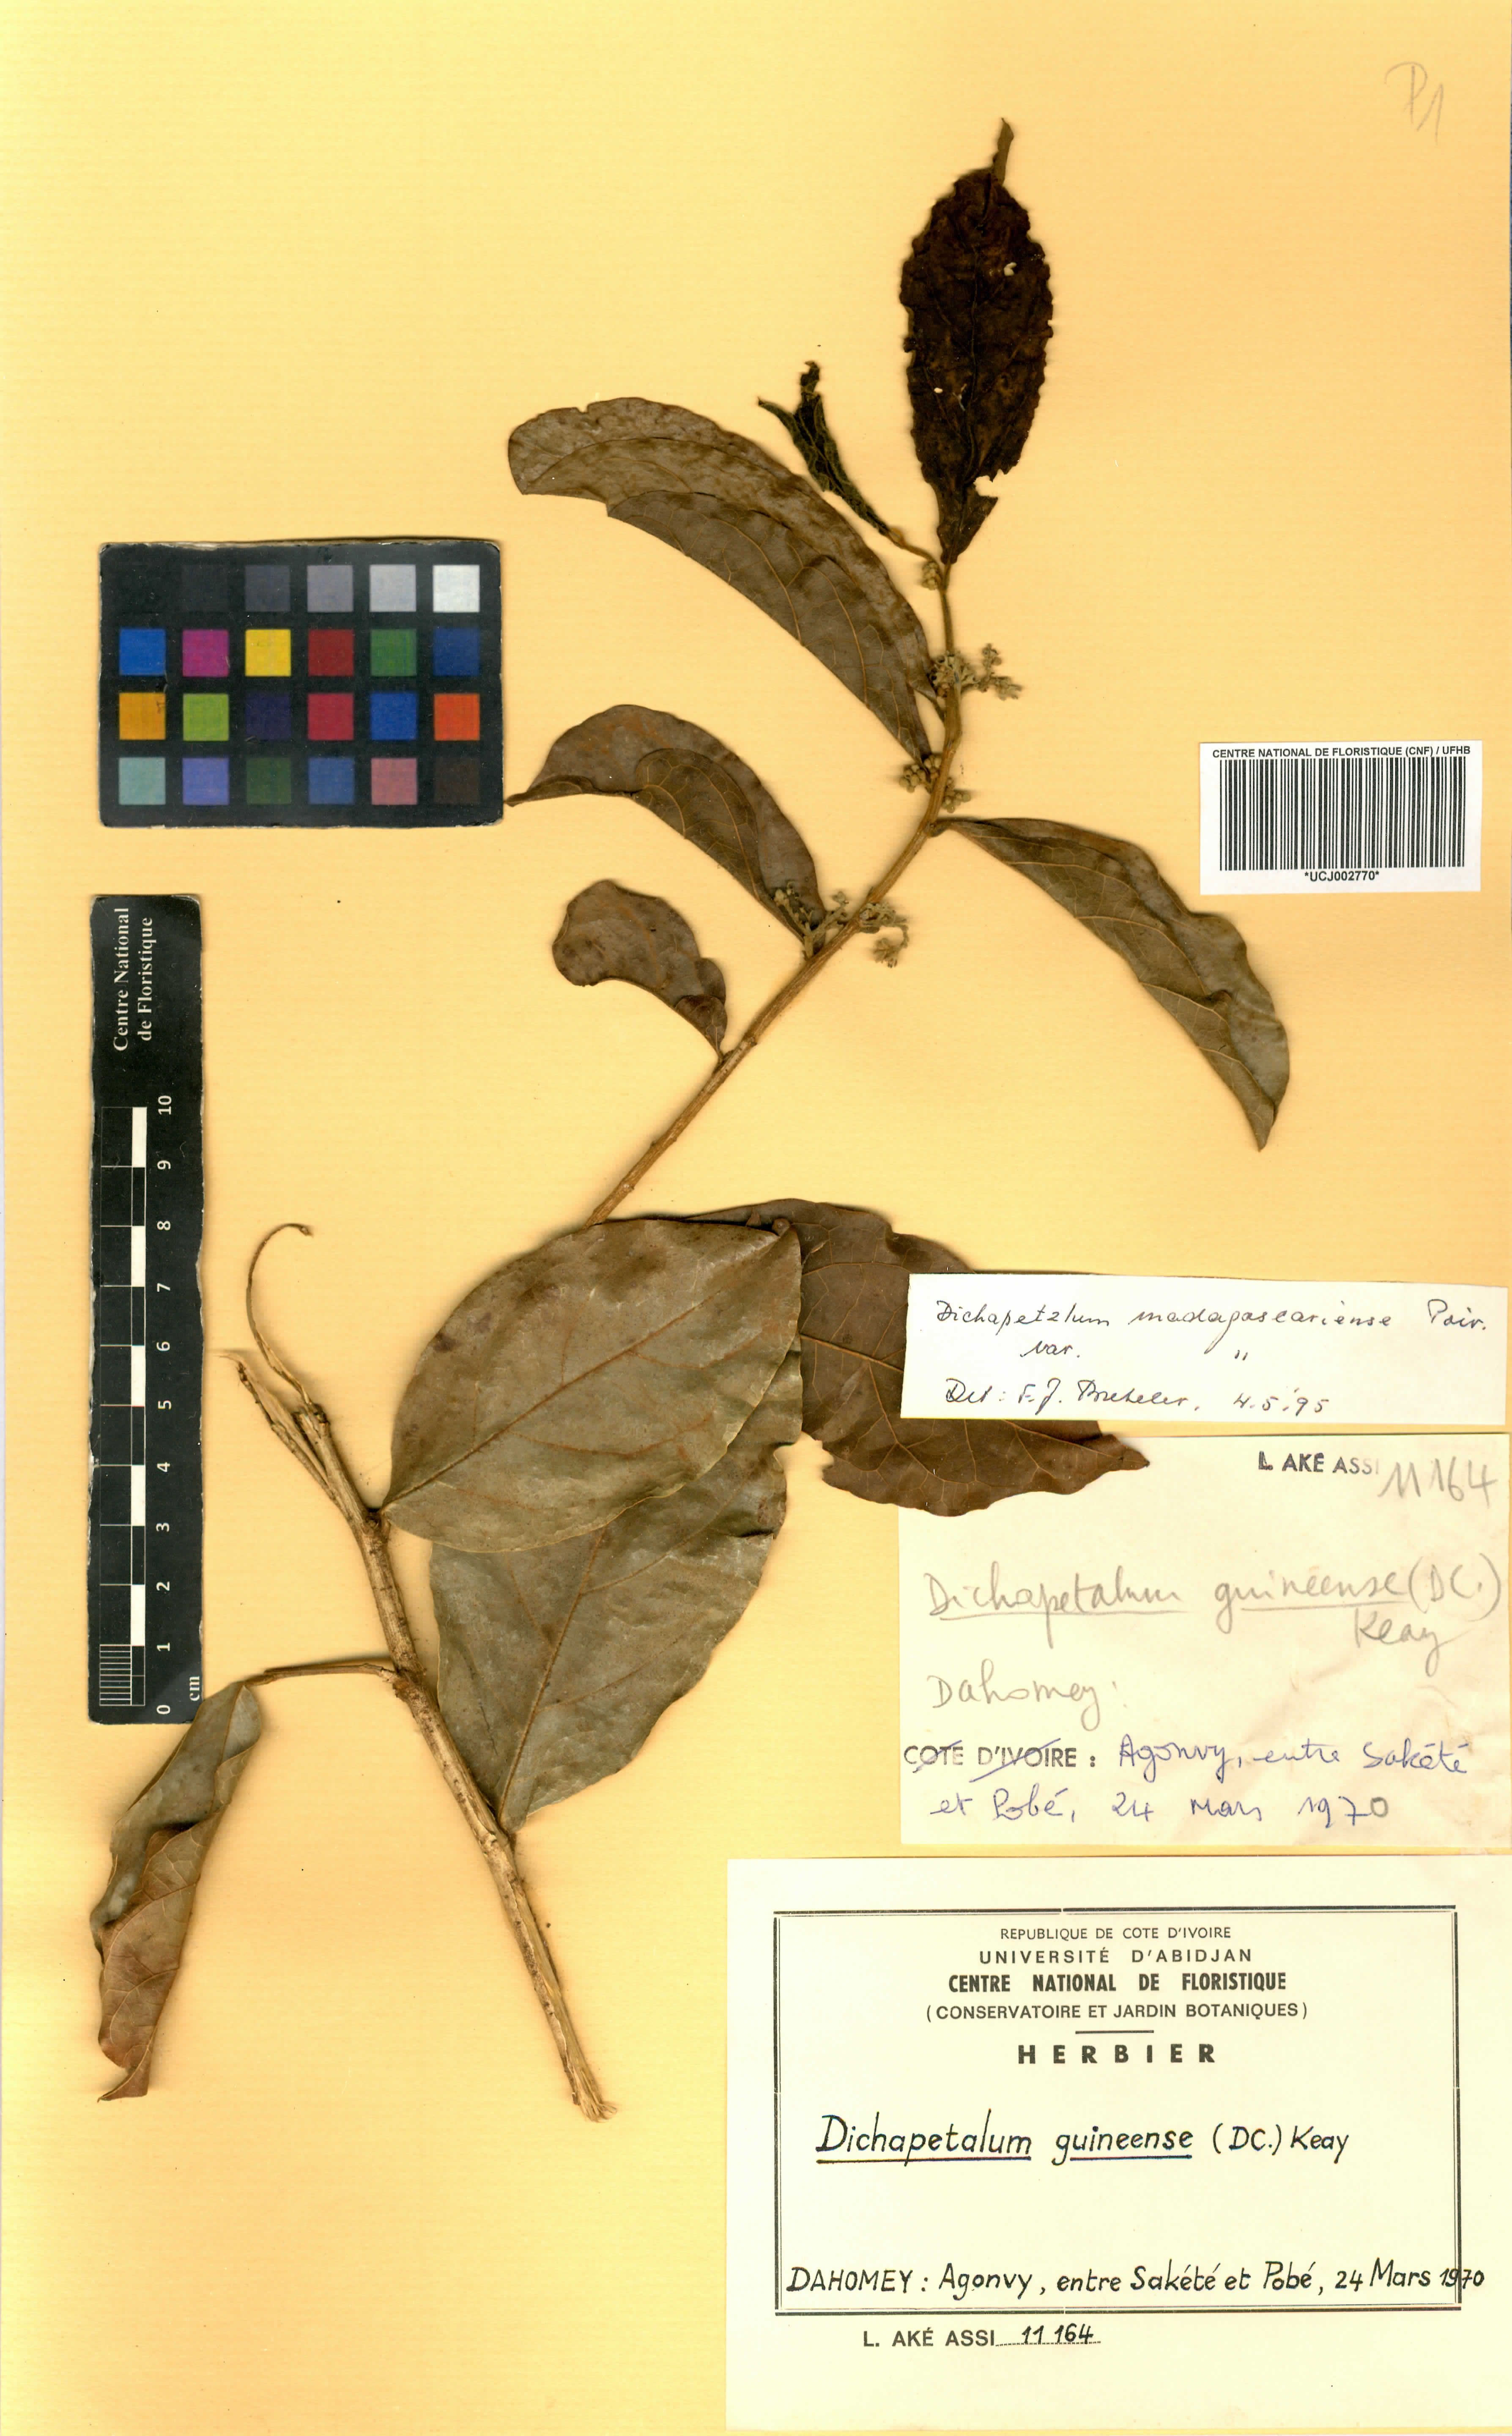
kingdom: Plantae
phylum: Tracheophyta
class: Magnoliopsida
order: Malpighiales
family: Dichapetalaceae
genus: Dichapetalum
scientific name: Dichapetalum madagascariense
